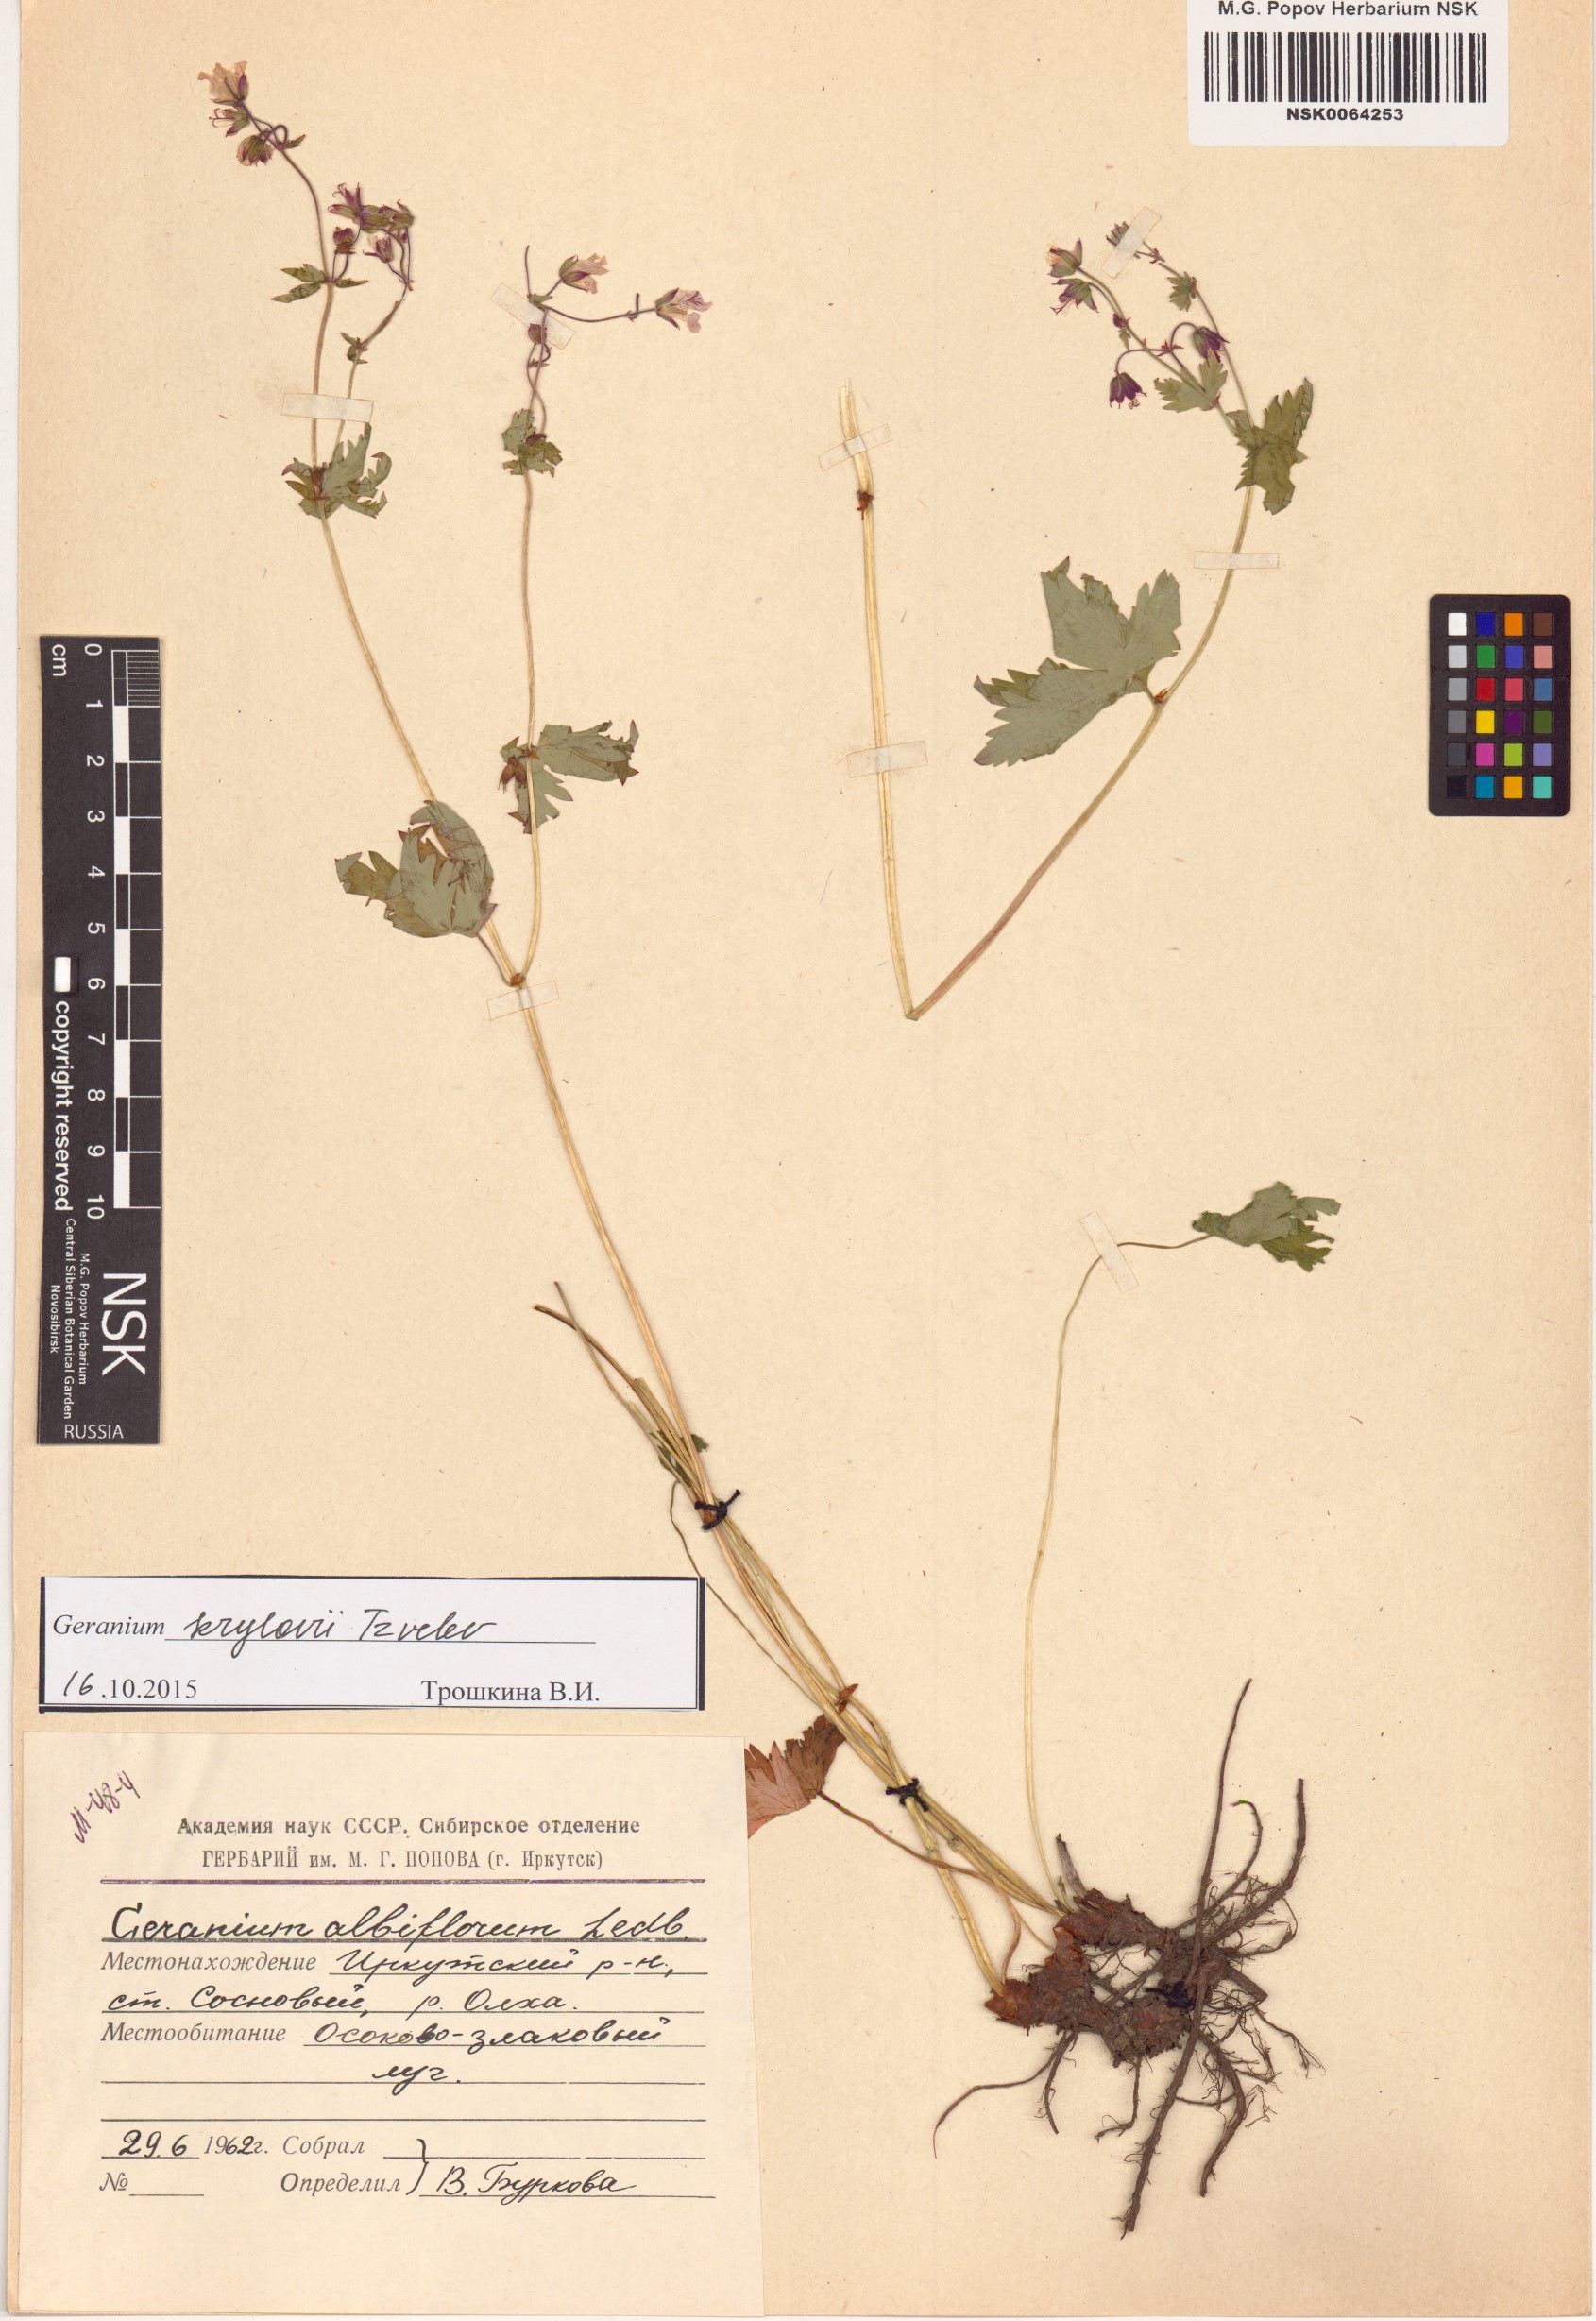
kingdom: Plantae
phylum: Tracheophyta
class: Magnoliopsida
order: Geraniales
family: Geraniaceae
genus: Geranium
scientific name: Geranium sylvaticum
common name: Wood crane's-bill
